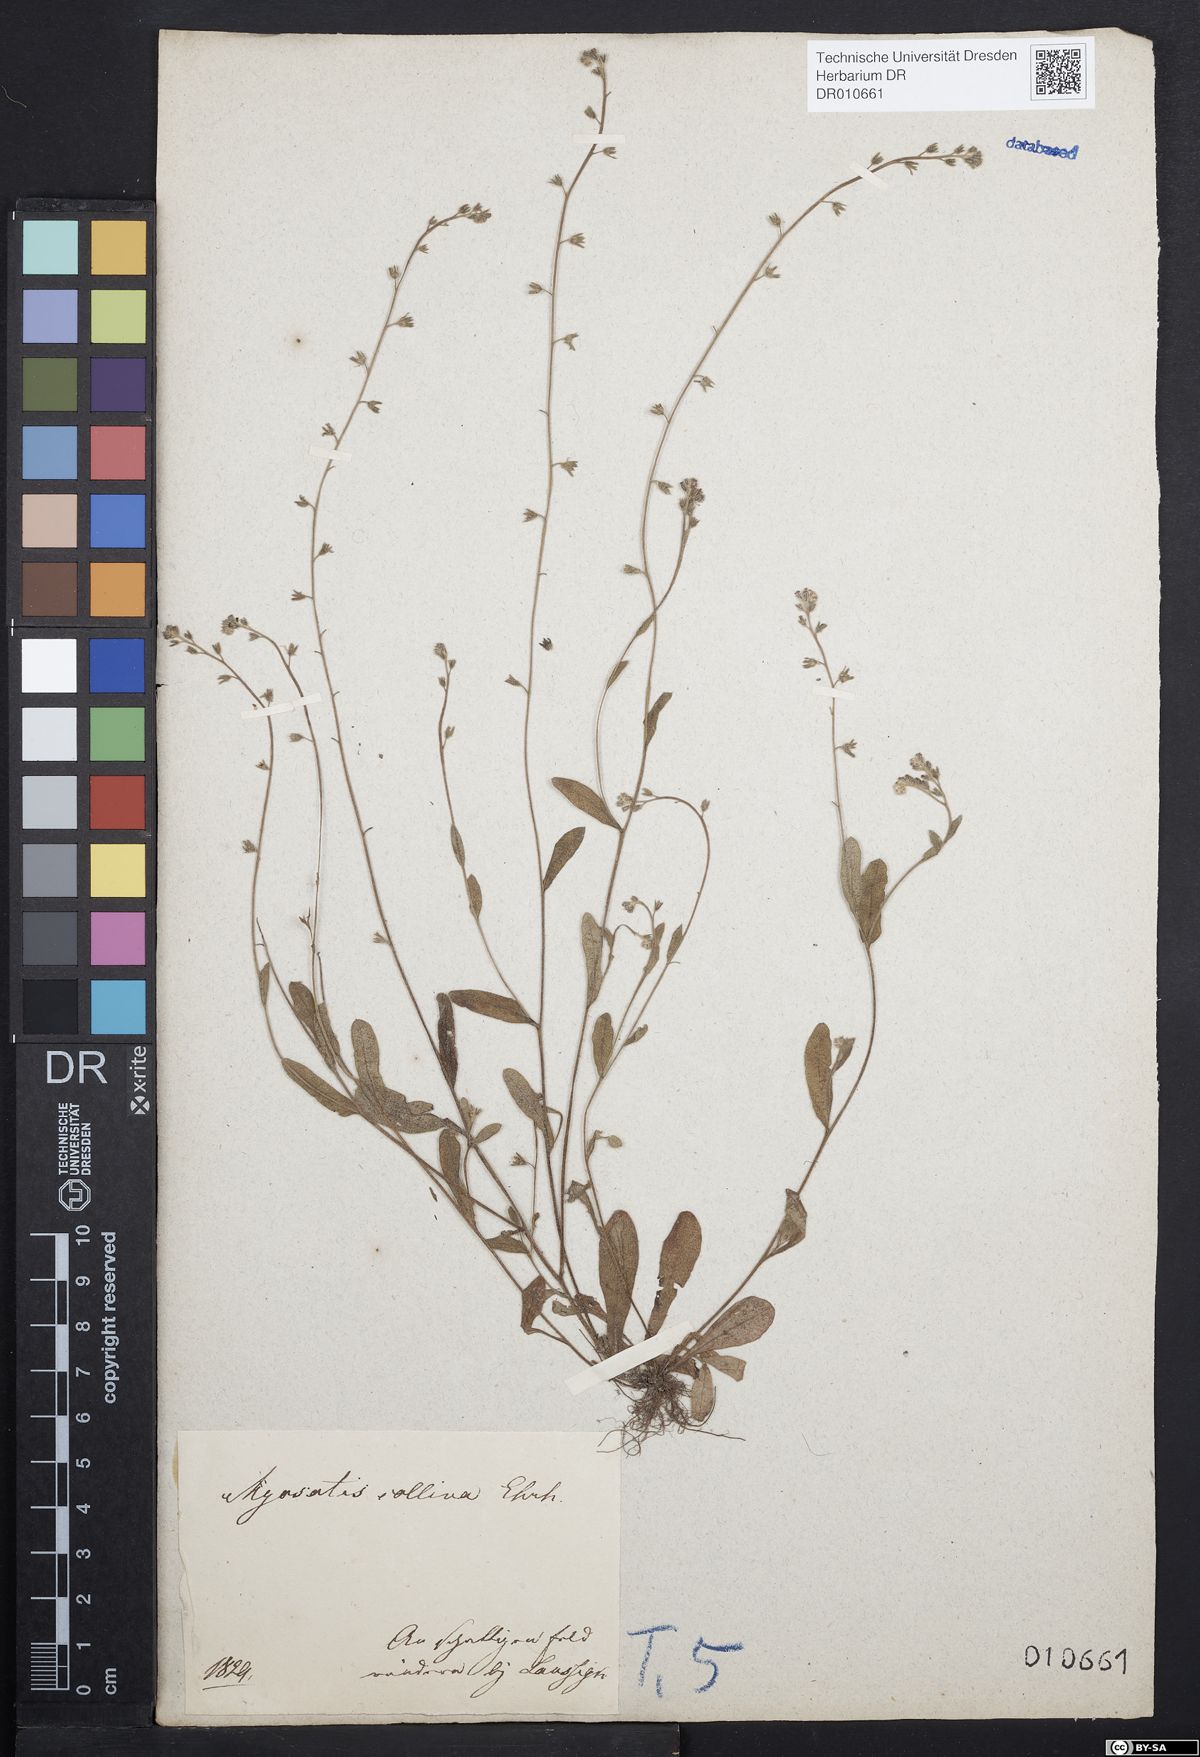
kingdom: Plantae
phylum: Tracheophyta
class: Magnoliopsida
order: Boraginales
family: Boraginaceae
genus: Myosotis
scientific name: Myosotis ramosissima
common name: Early forget-me-not
